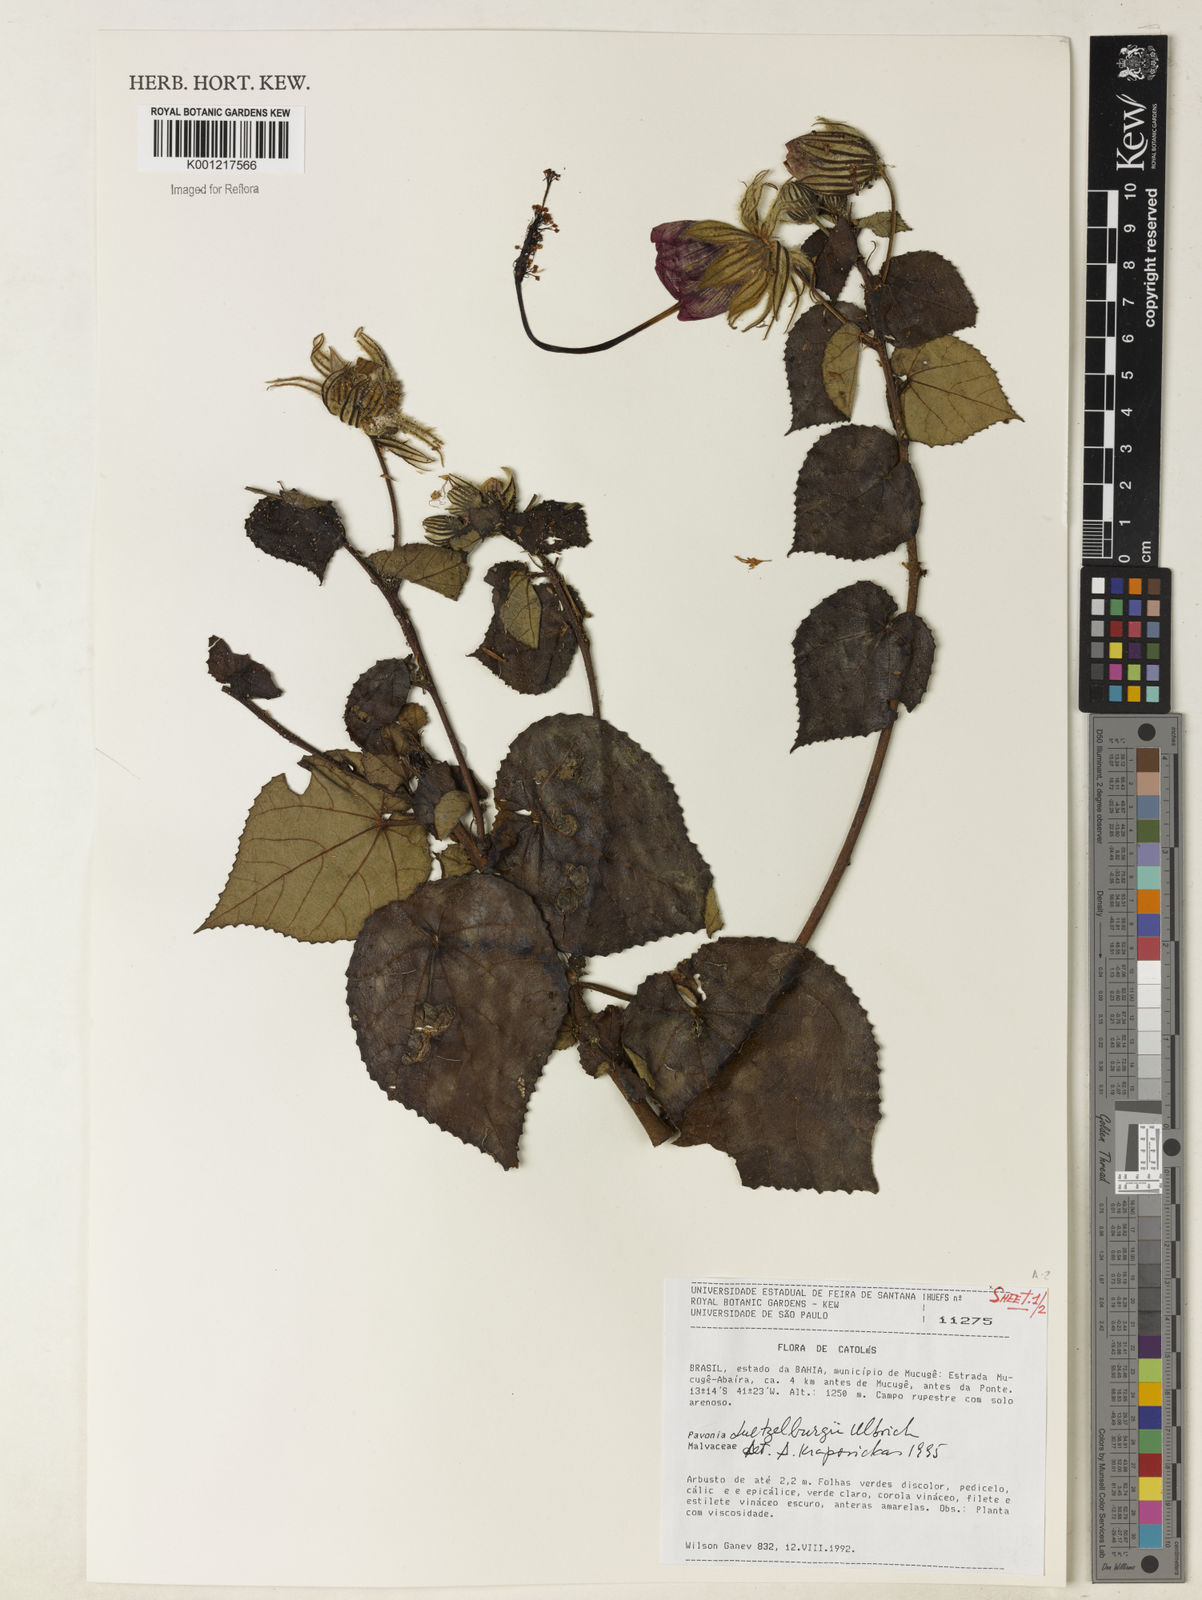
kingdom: Plantae
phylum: Tracheophyta
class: Magnoliopsida
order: Malvales
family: Malvaceae
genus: Pavonia
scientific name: Pavonia luetzelburgii
